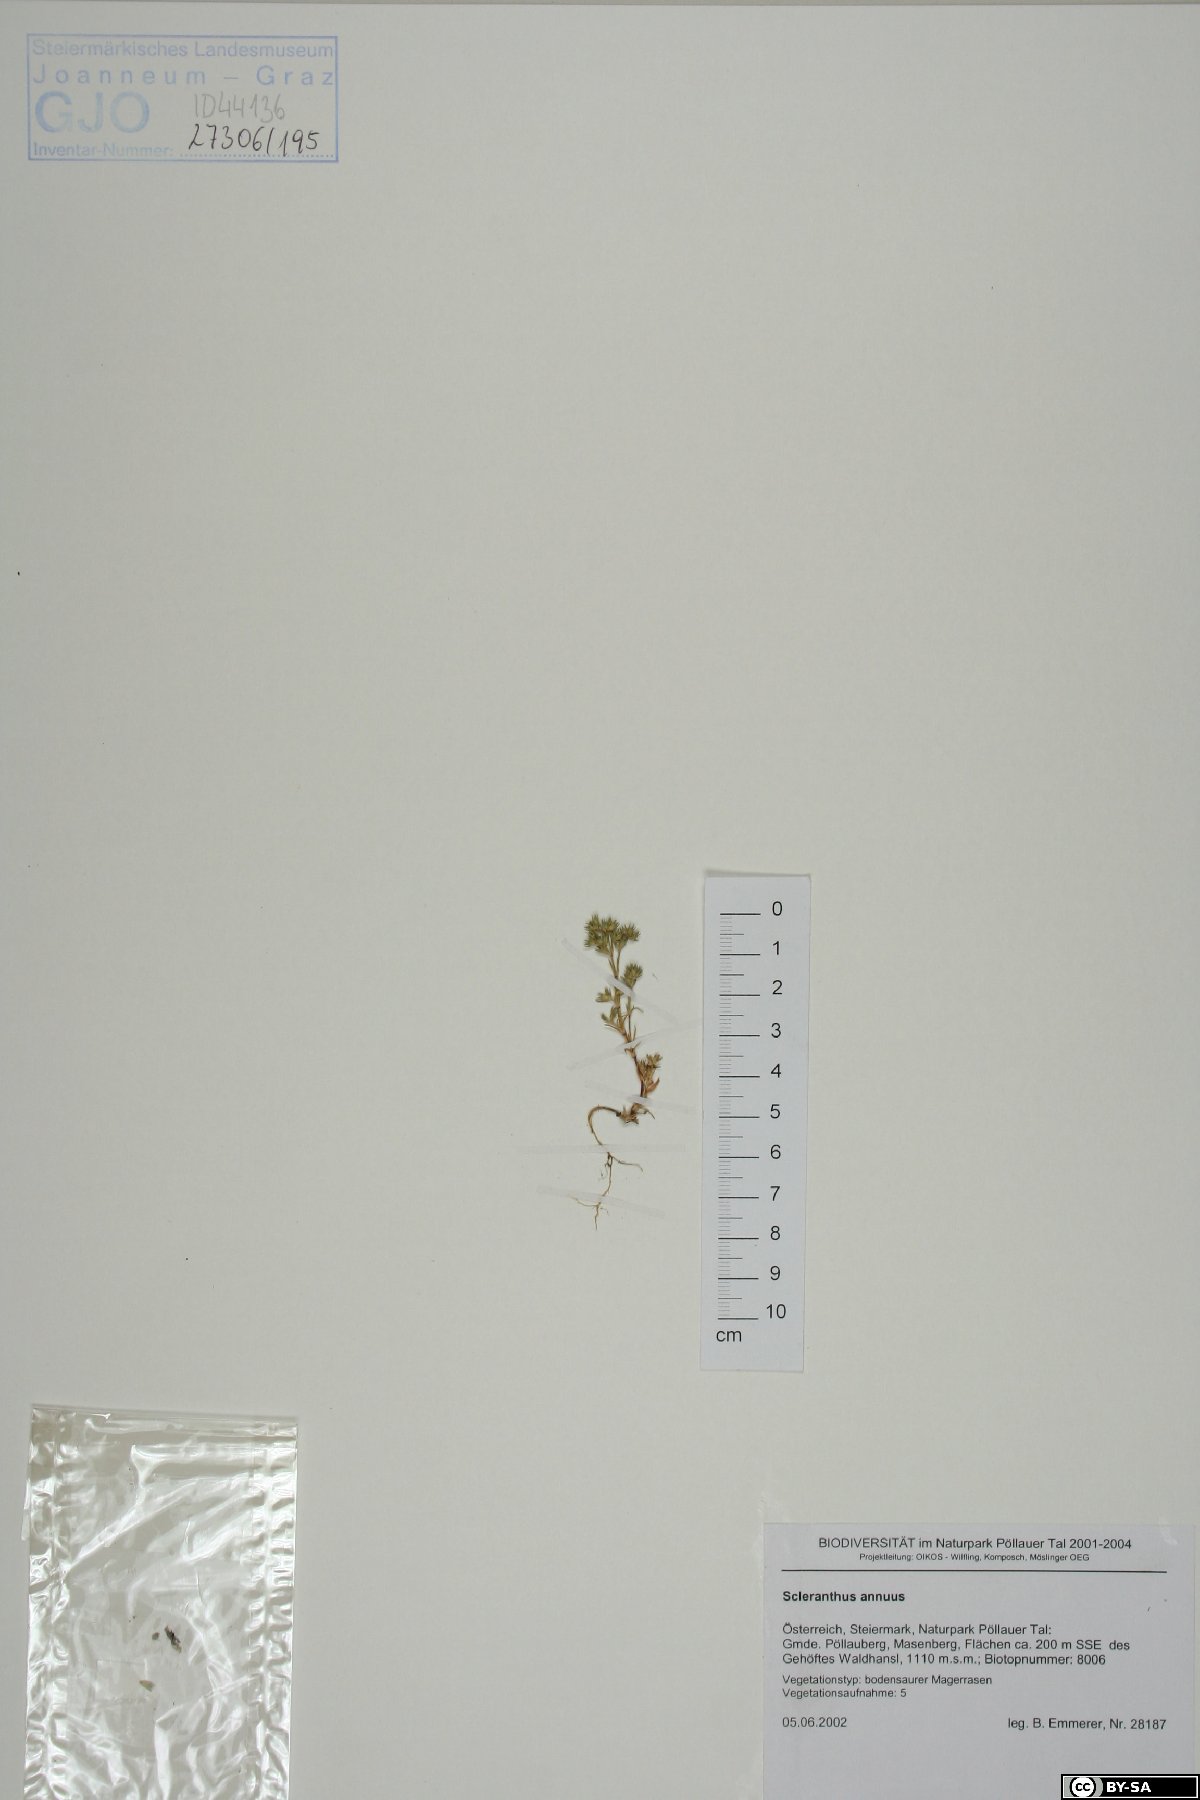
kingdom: Plantae
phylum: Tracheophyta
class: Magnoliopsida
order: Caryophyllales
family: Caryophyllaceae
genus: Scleranthus
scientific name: Scleranthus annuus
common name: Annual knawel
